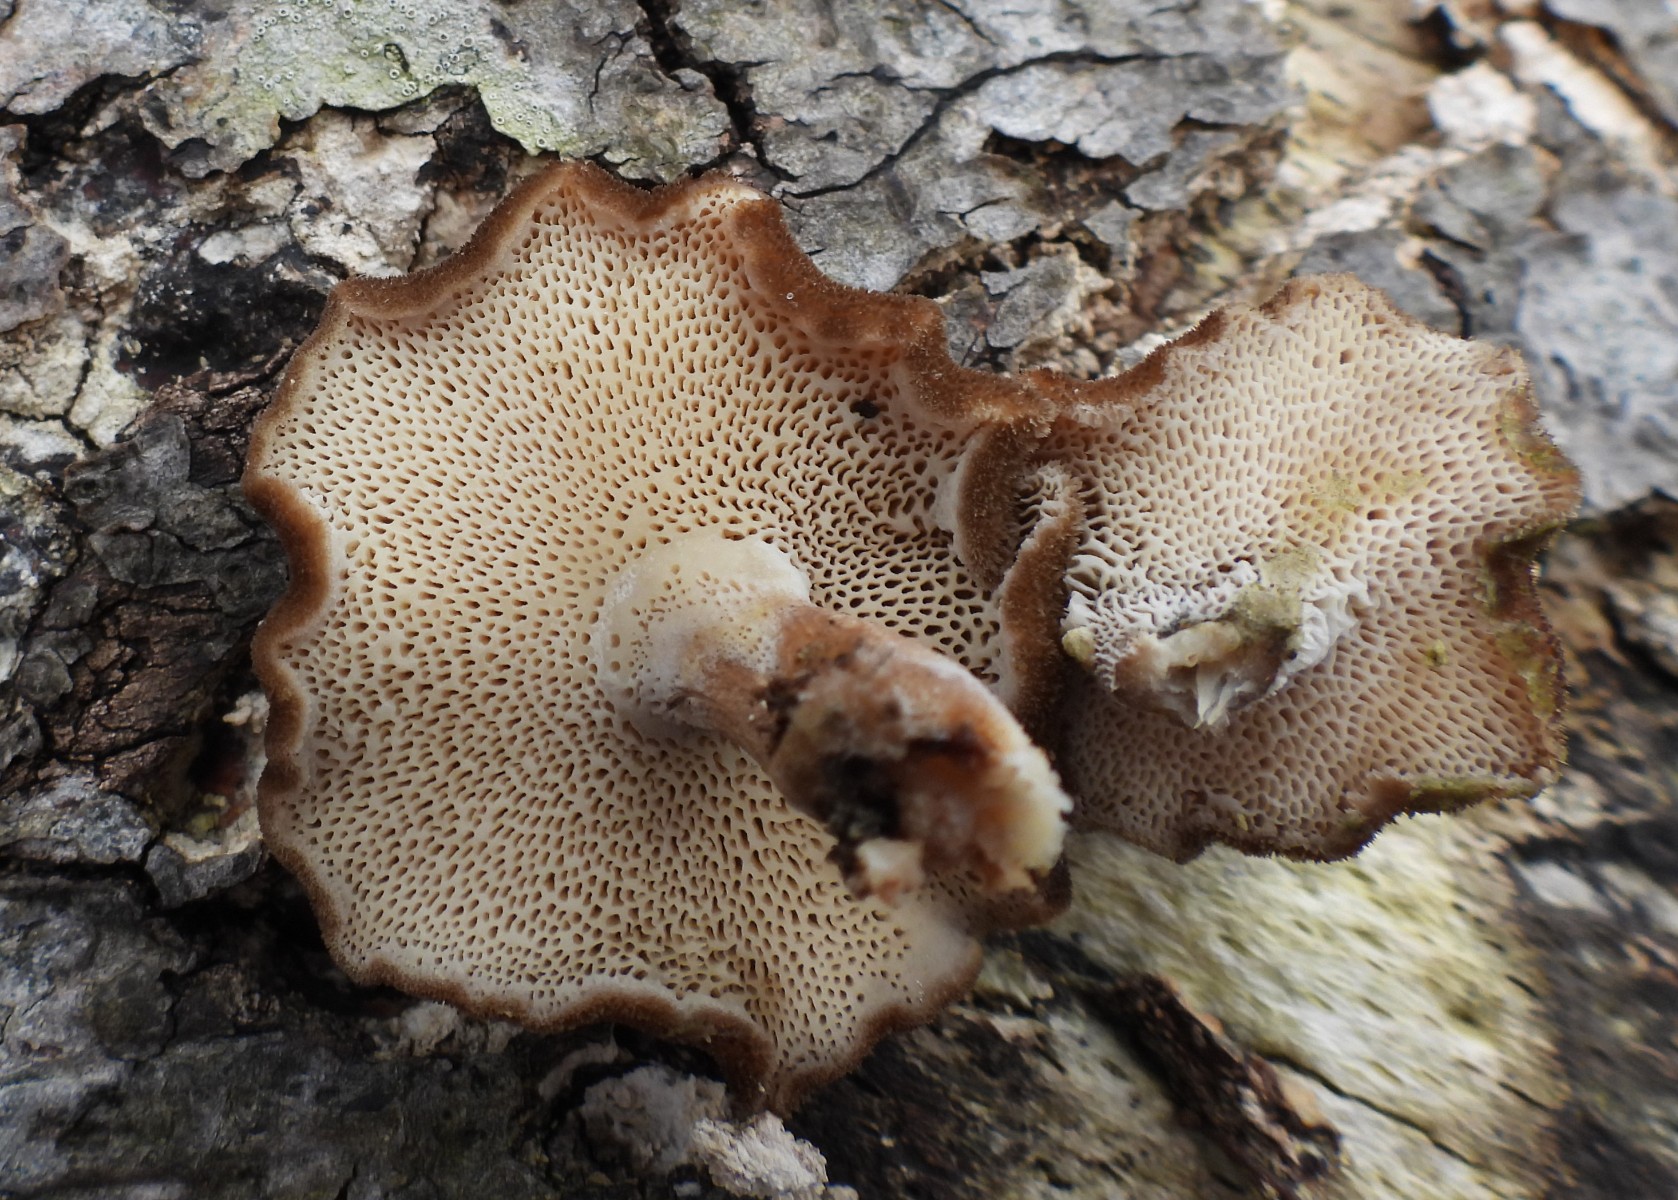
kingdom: Fungi
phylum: Basidiomycota
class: Agaricomycetes
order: Polyporales
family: Polyporaceae
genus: Lentinus
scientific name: Lentinus brumalis
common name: vinter-stilkporesvamp
